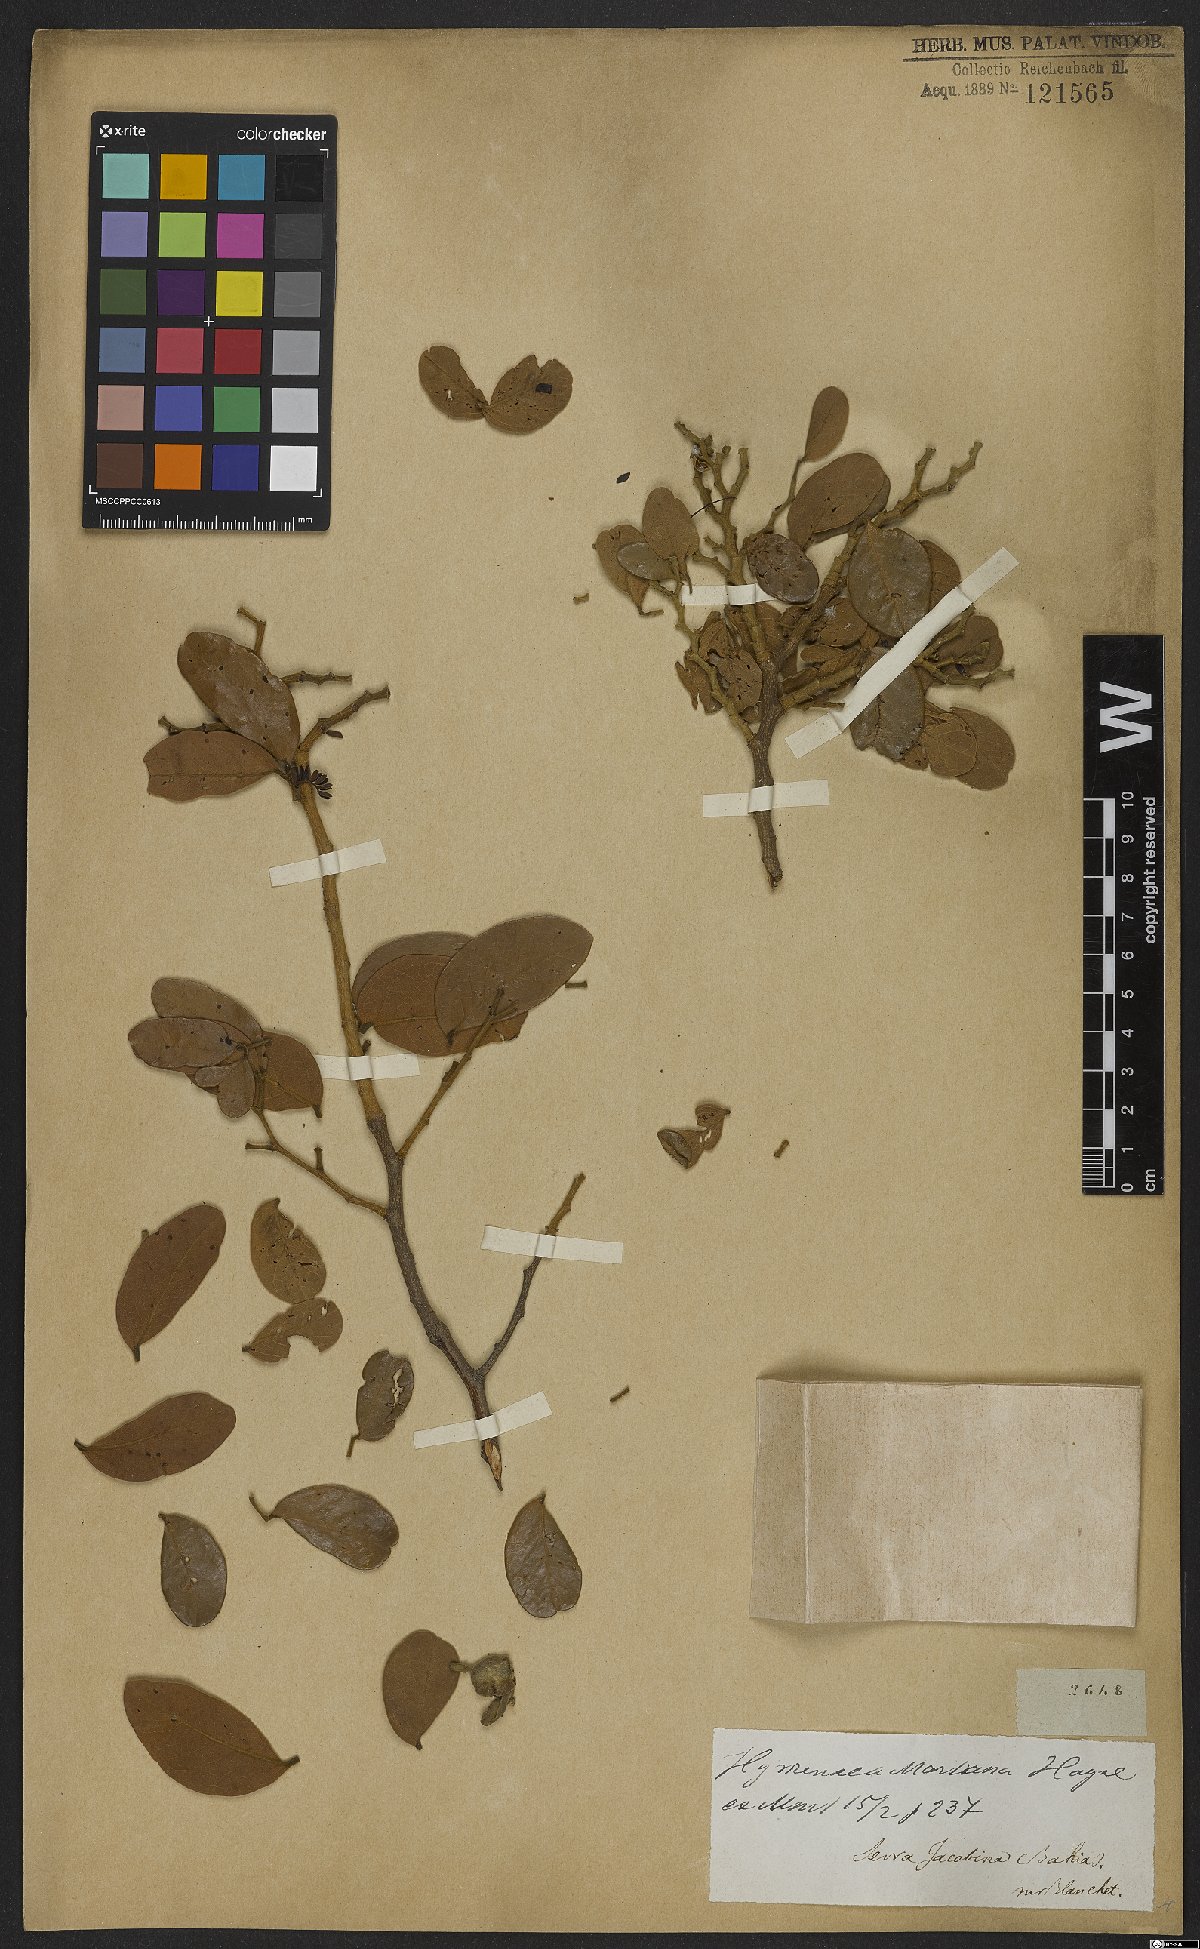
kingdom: Plantae
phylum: Tracheophyta
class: Magnoliopsida
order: Fabales
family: Fabaceae
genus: Hymenaea
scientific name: Hymenaea martiana
